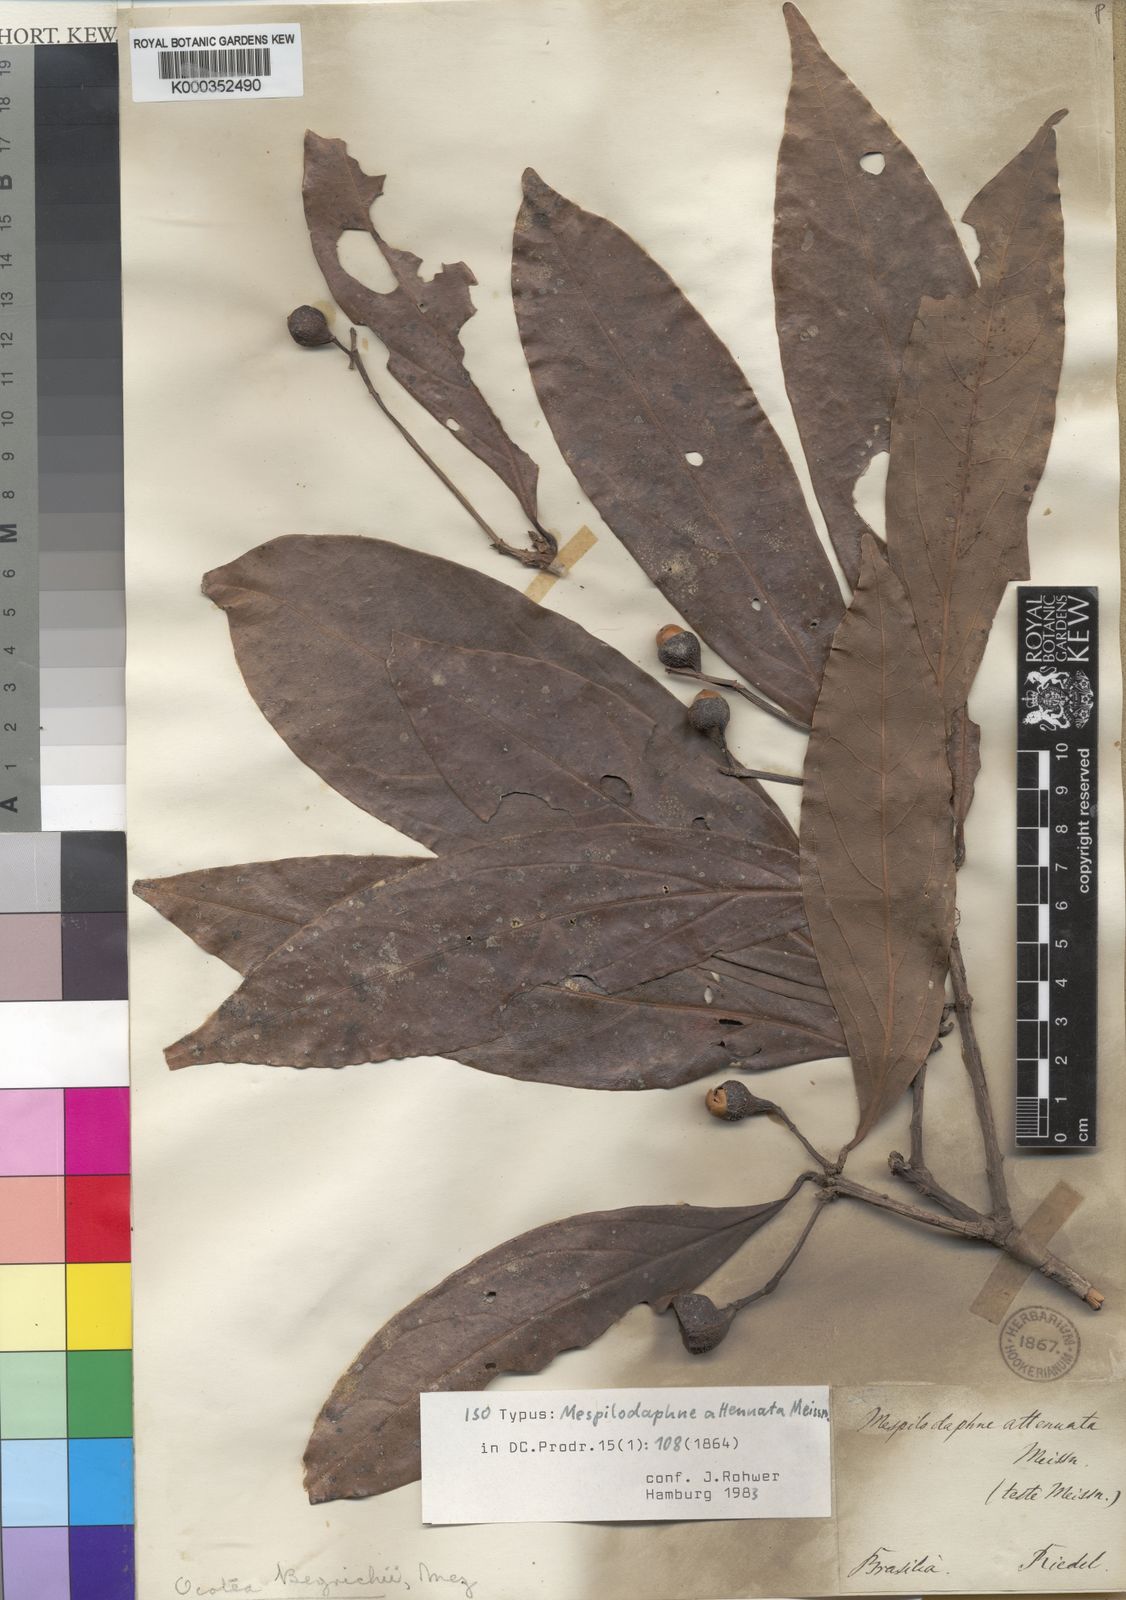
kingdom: Plantae
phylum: Tracheophyta
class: Magnoliopsida
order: Laurales
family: Lauraceae
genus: Ocotea
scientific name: Ocotea beyrichii
